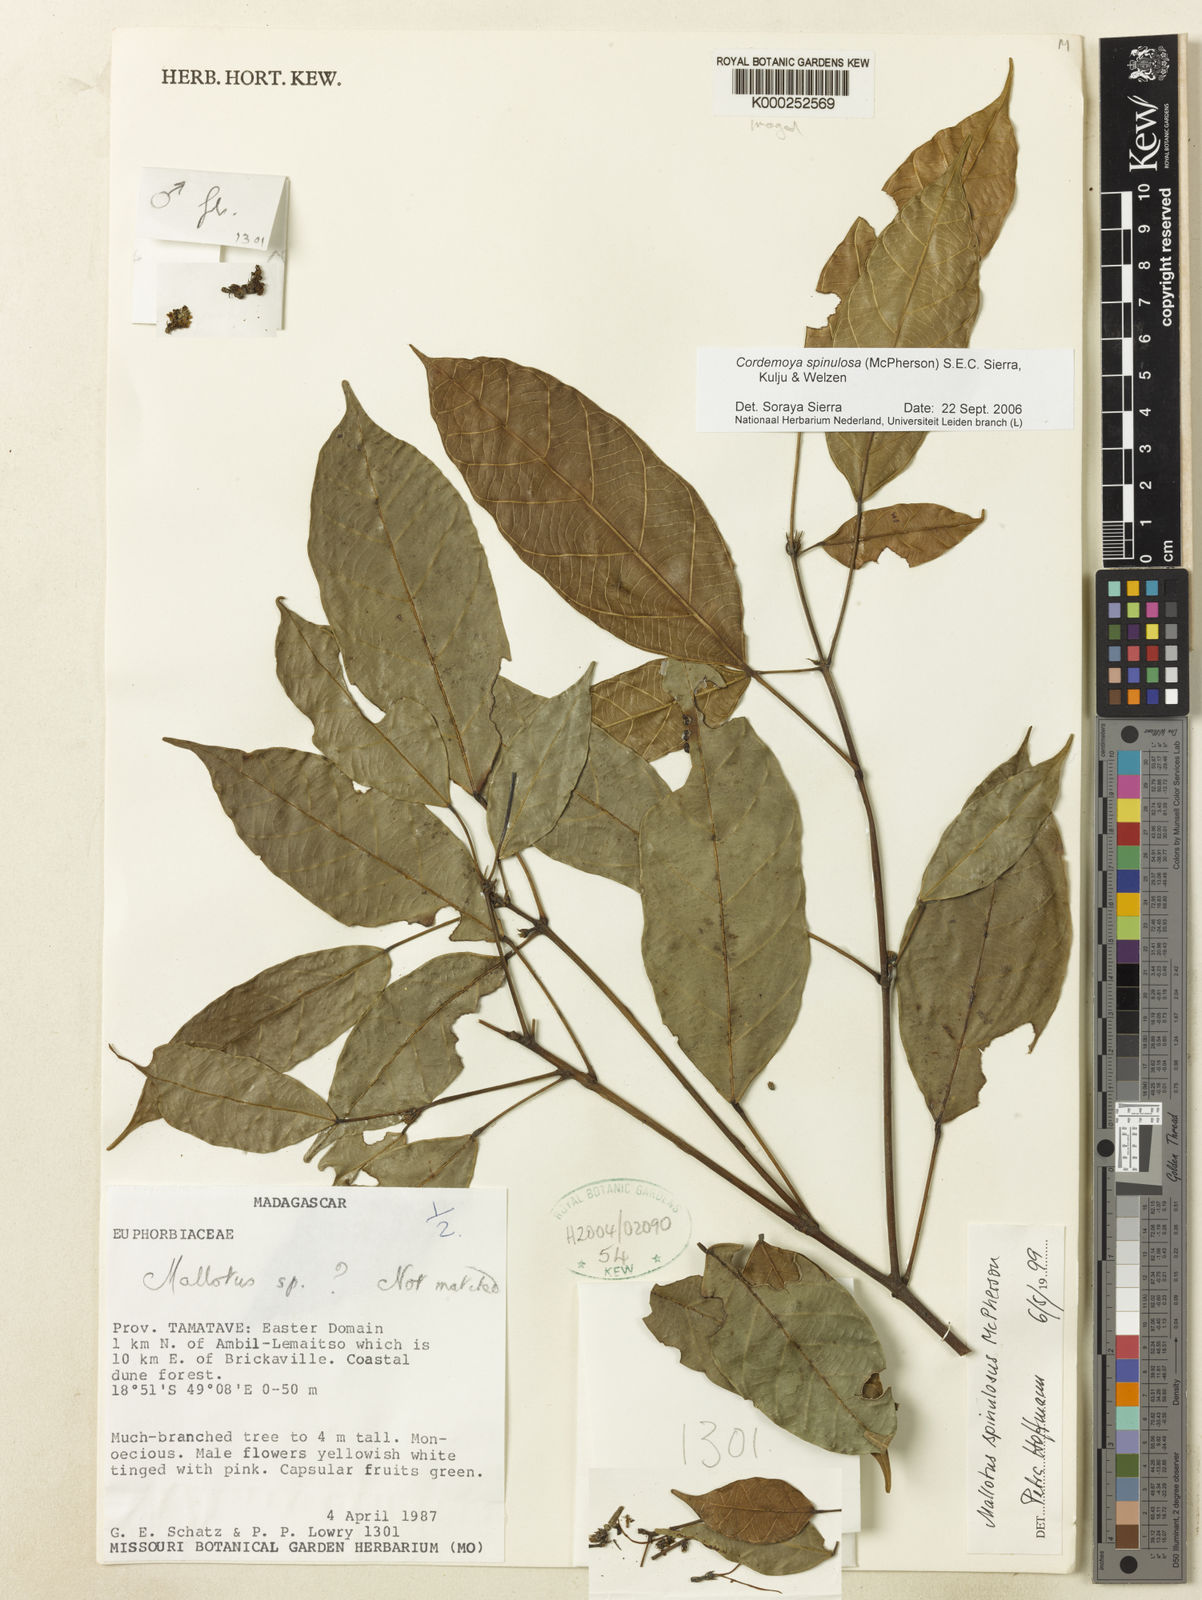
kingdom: Plantae
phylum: Tracheophyta
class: Magnoliopsida
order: Malpighiales
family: Euphorbiaceae
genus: Hancea
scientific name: Hancea spinulosa
